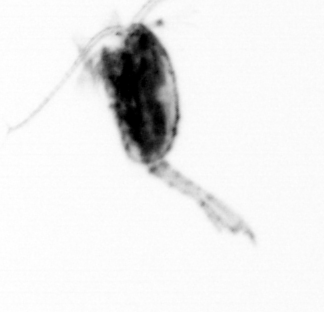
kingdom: Animalia
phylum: Arthropoda
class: Copepoda
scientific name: Copepoda
